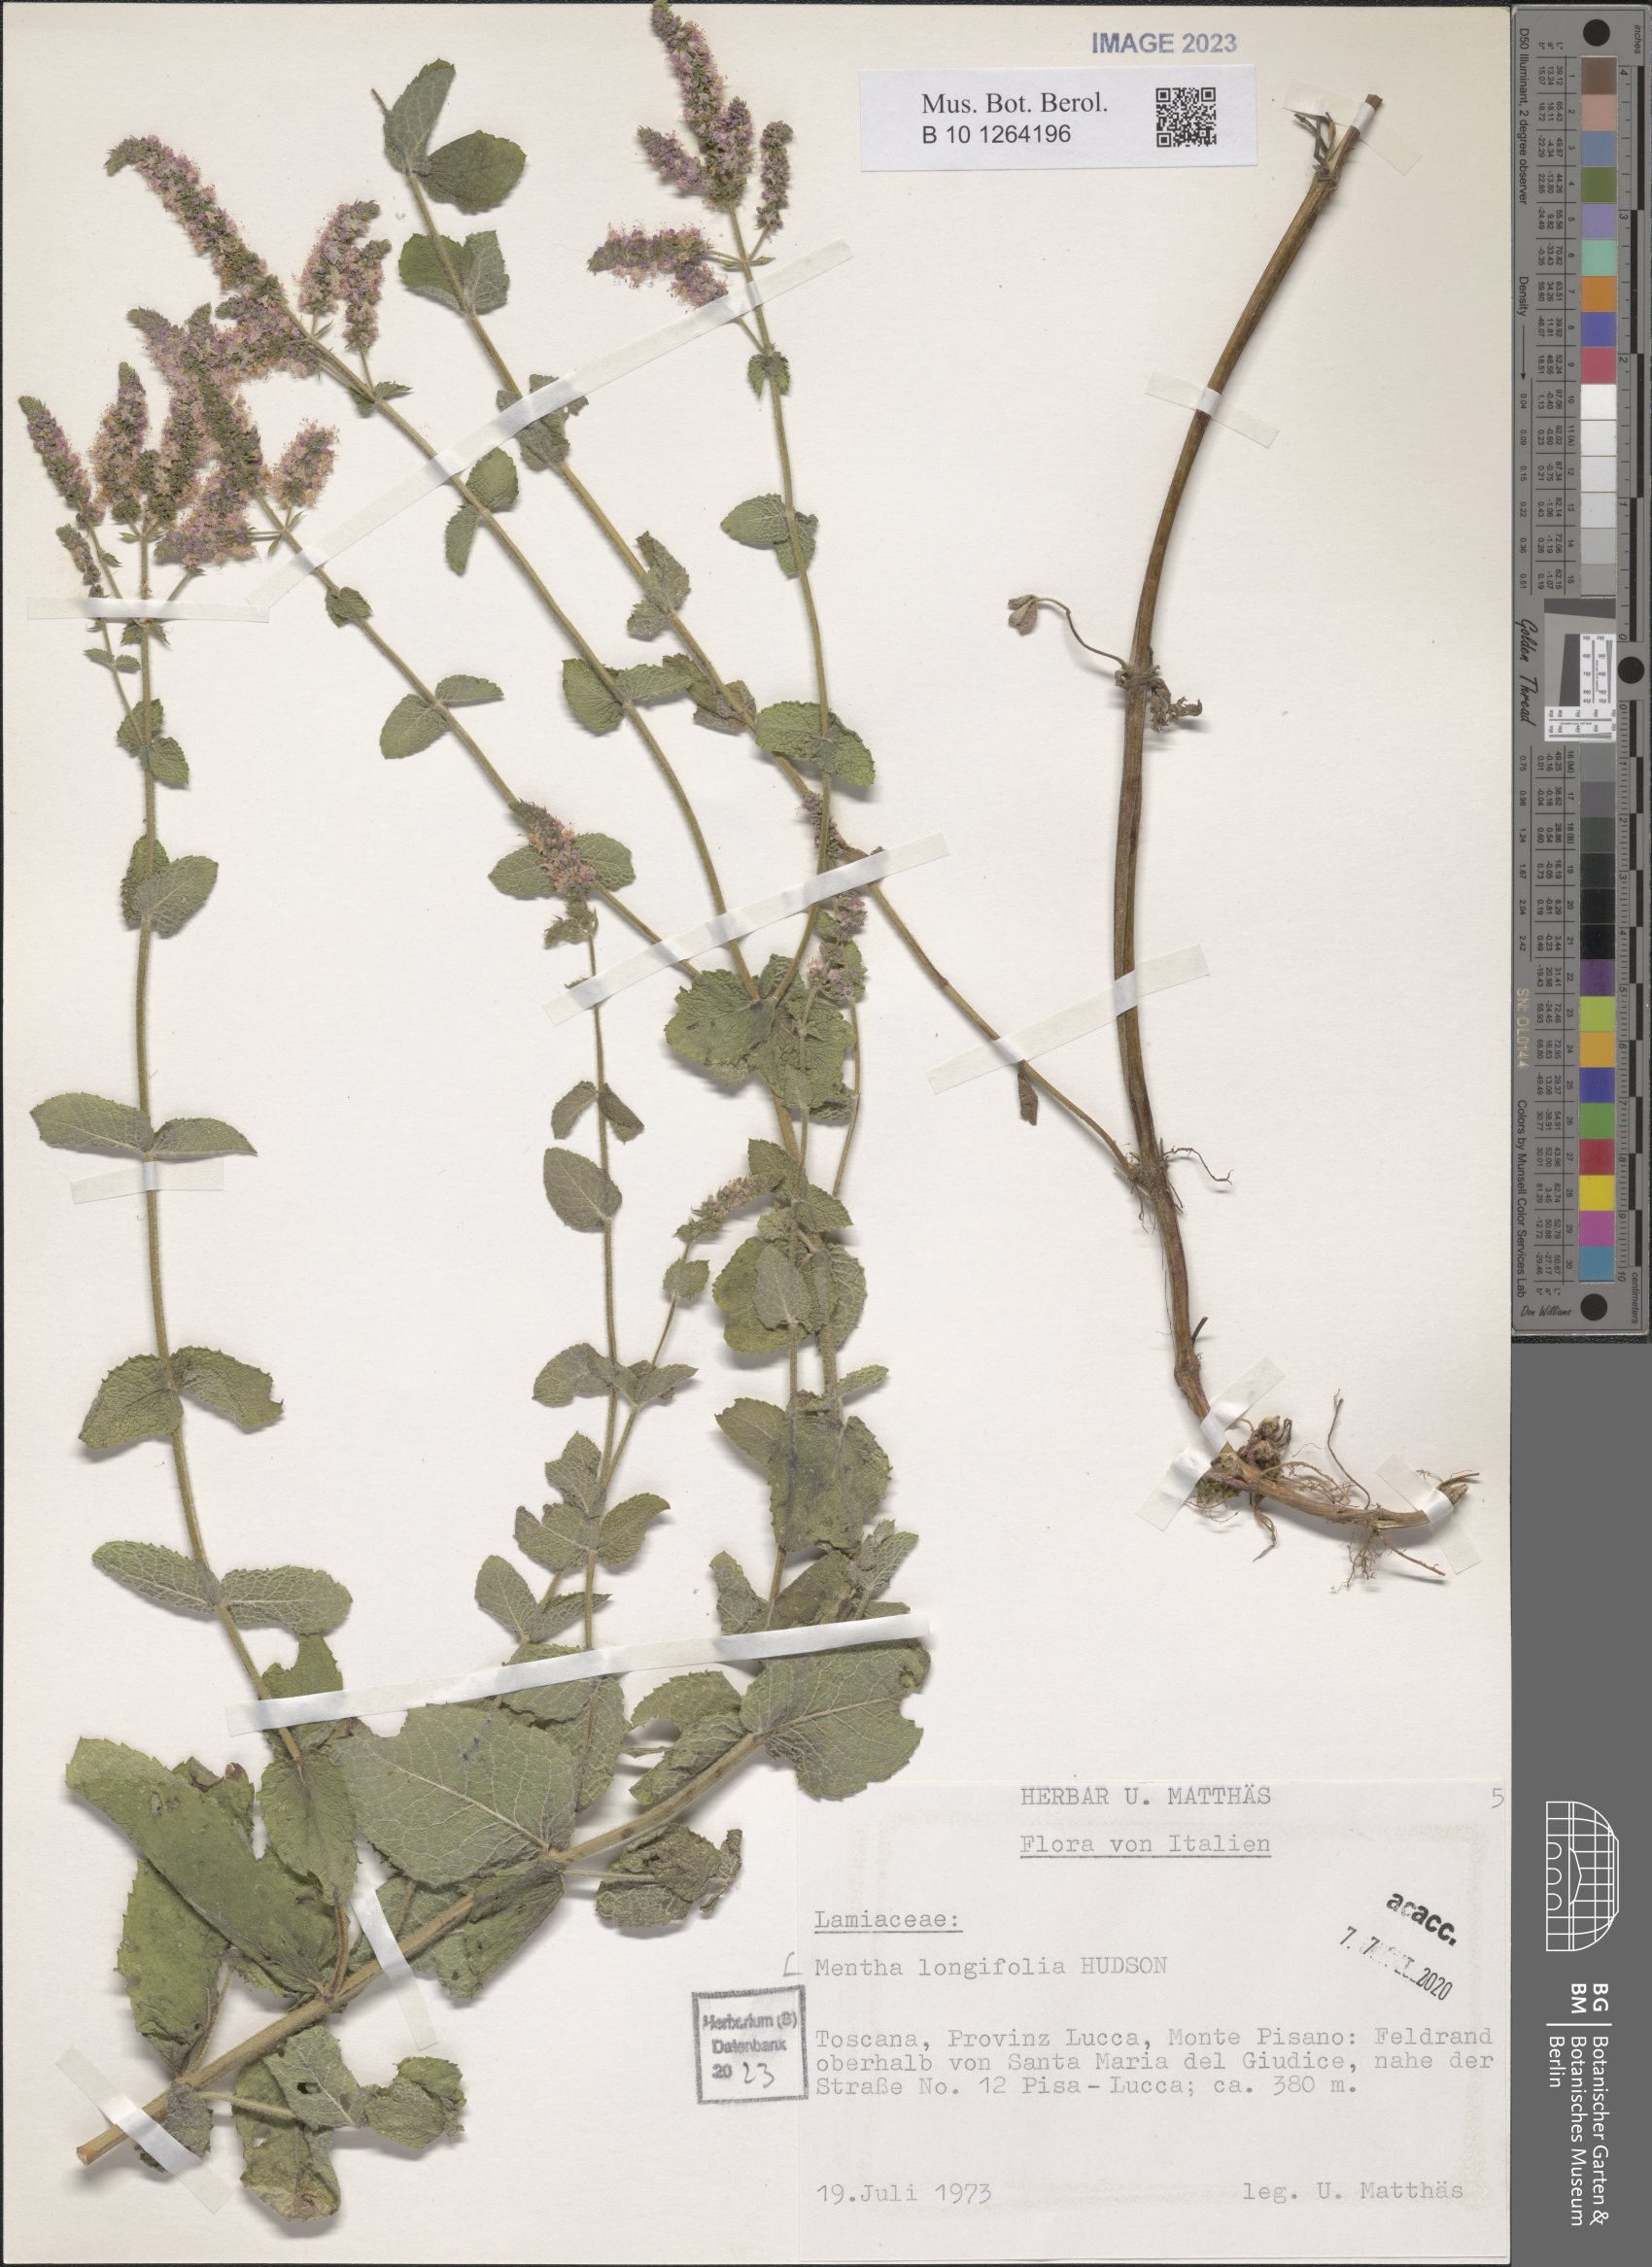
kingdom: Plantae
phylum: Tracheophyta
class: Magnoliopsida
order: Lamiales
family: Lamiaceae
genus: Mentha
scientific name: Mentha longifolia
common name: Horse mint
